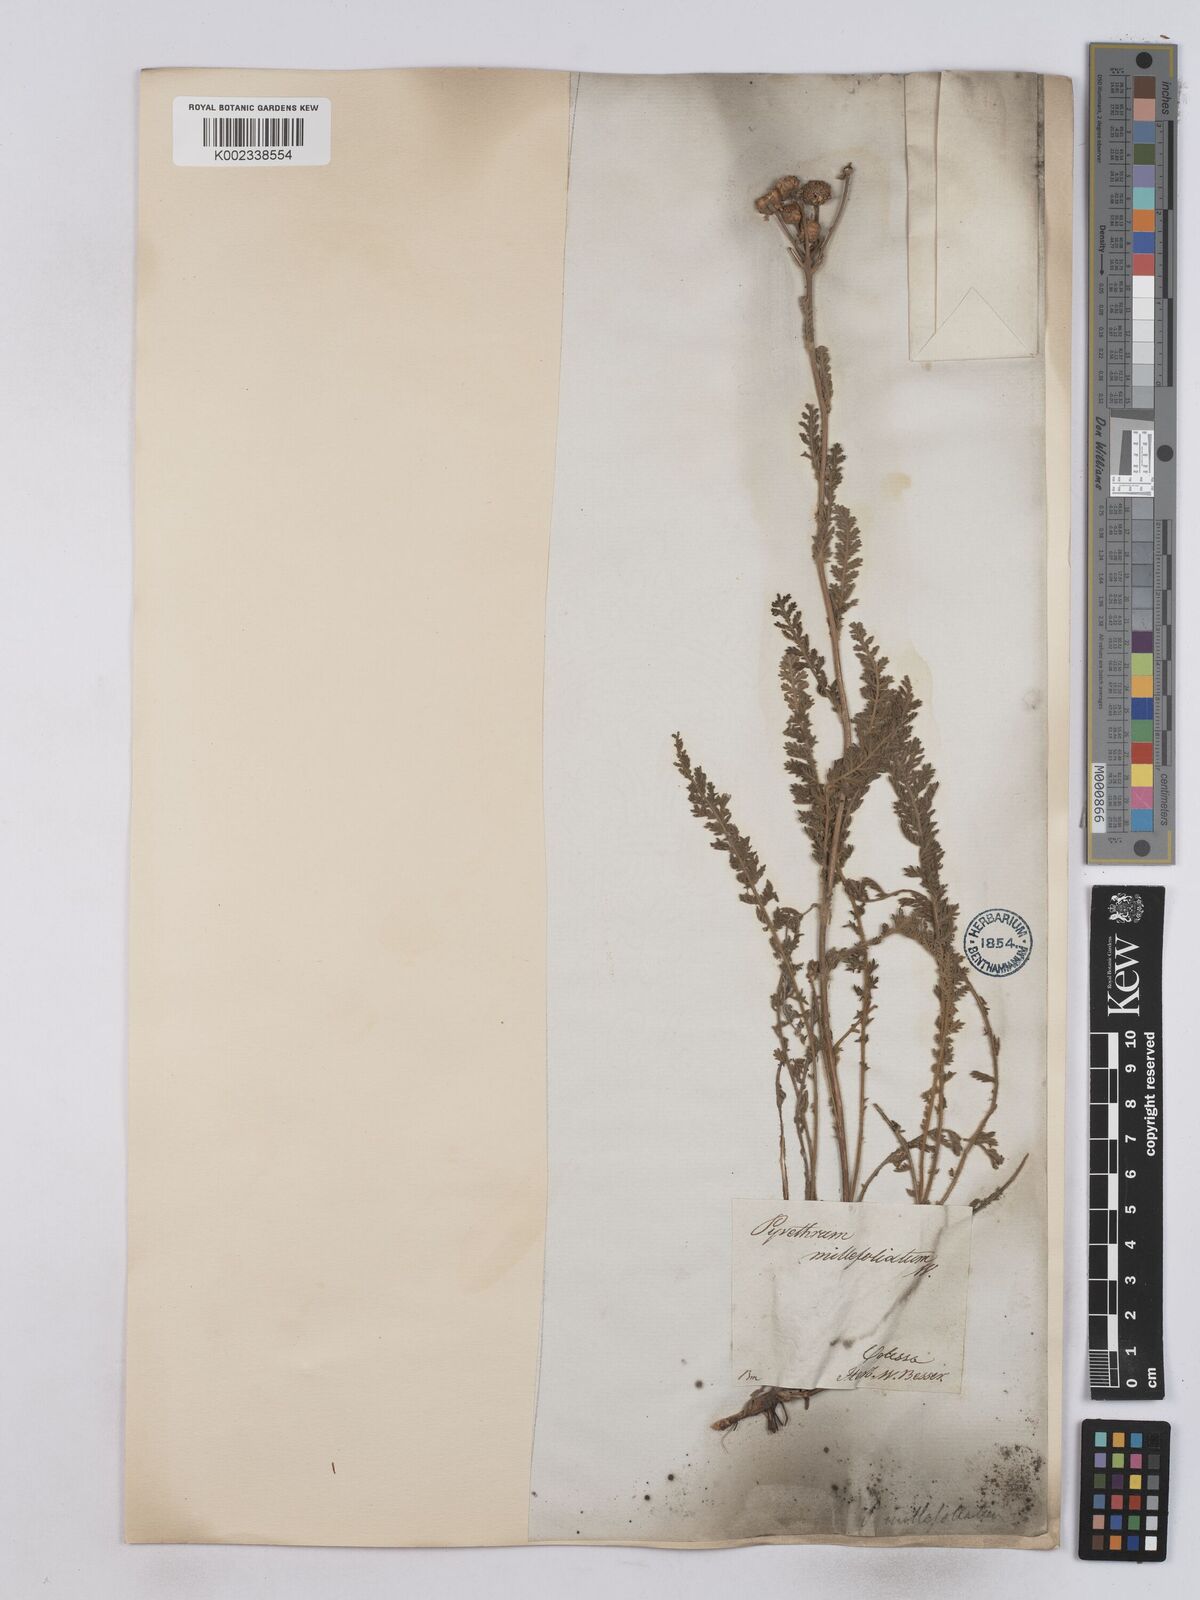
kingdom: Plantae
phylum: Tracheophyta
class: Magnoliopsida
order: Asterales
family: Asteraceae
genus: Tanacetum
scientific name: Tanacetum millefolium
